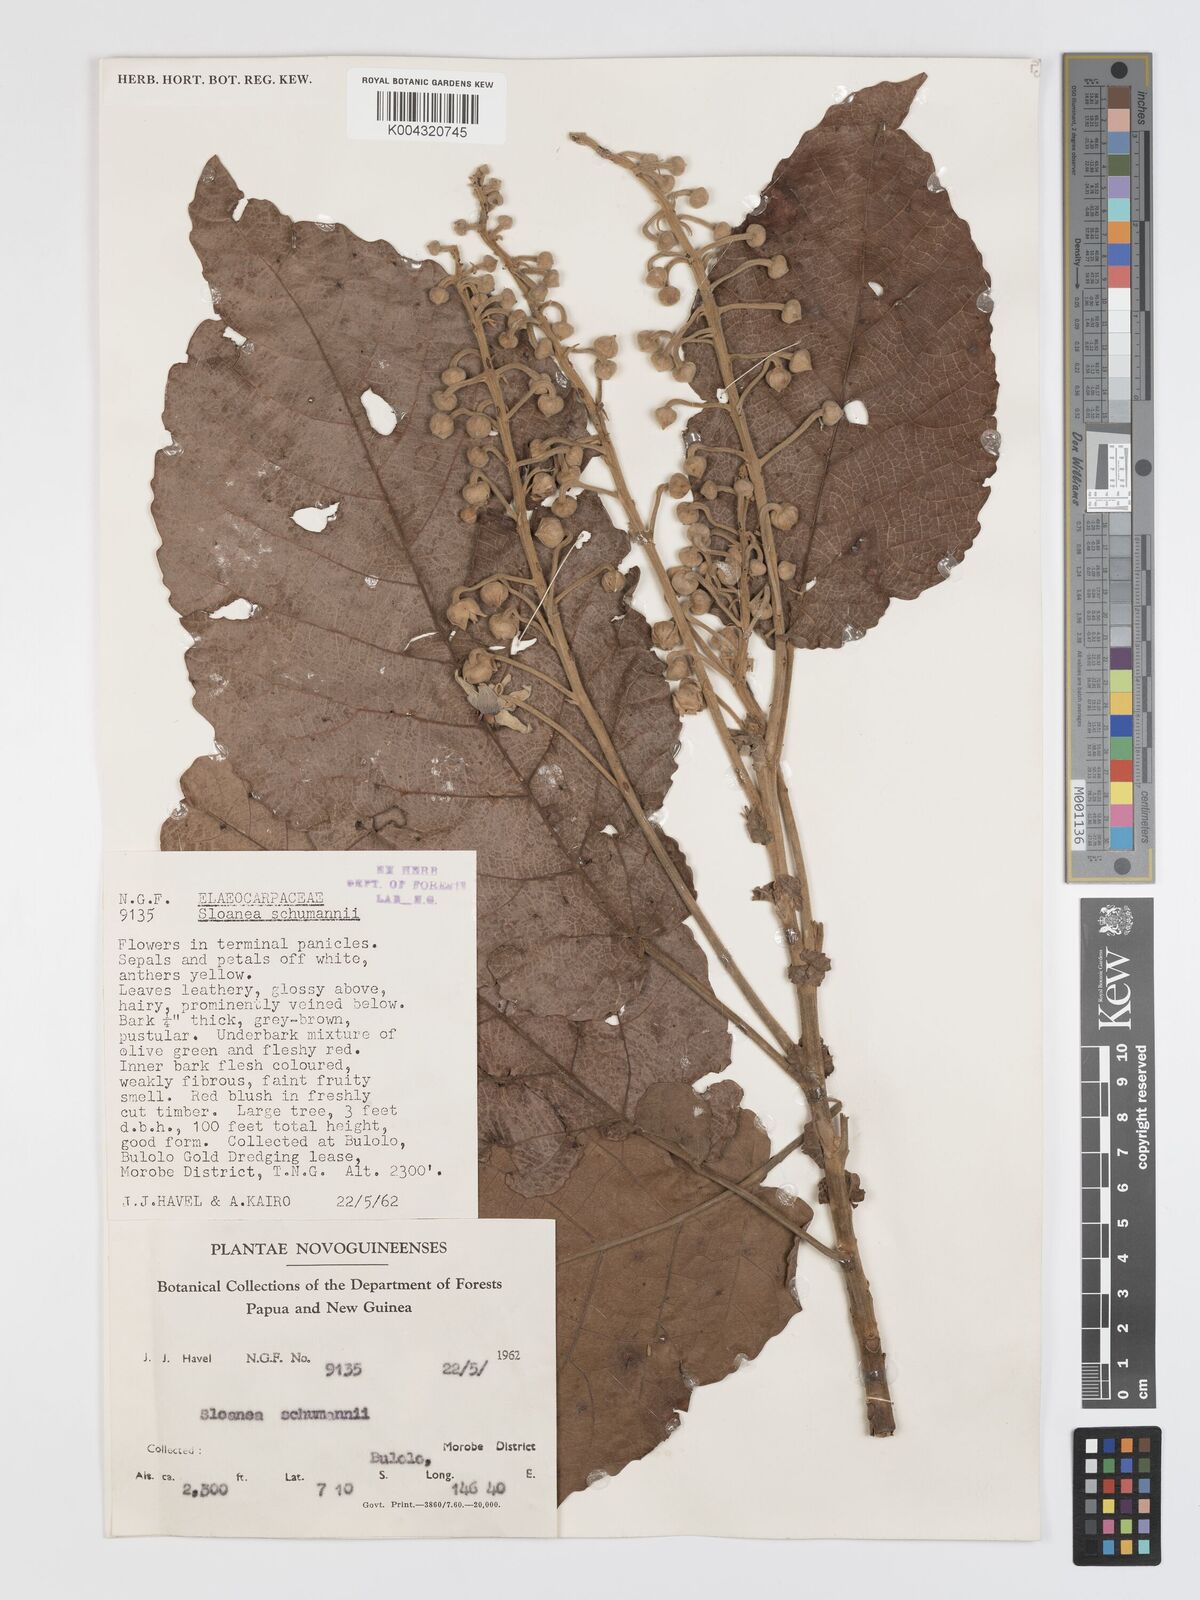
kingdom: Plantae
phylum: Tracheophyta
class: Magnoliopsida
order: Oxalidales
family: Elaeocarpaceae
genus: Sloanea
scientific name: Sloanea schumannii
